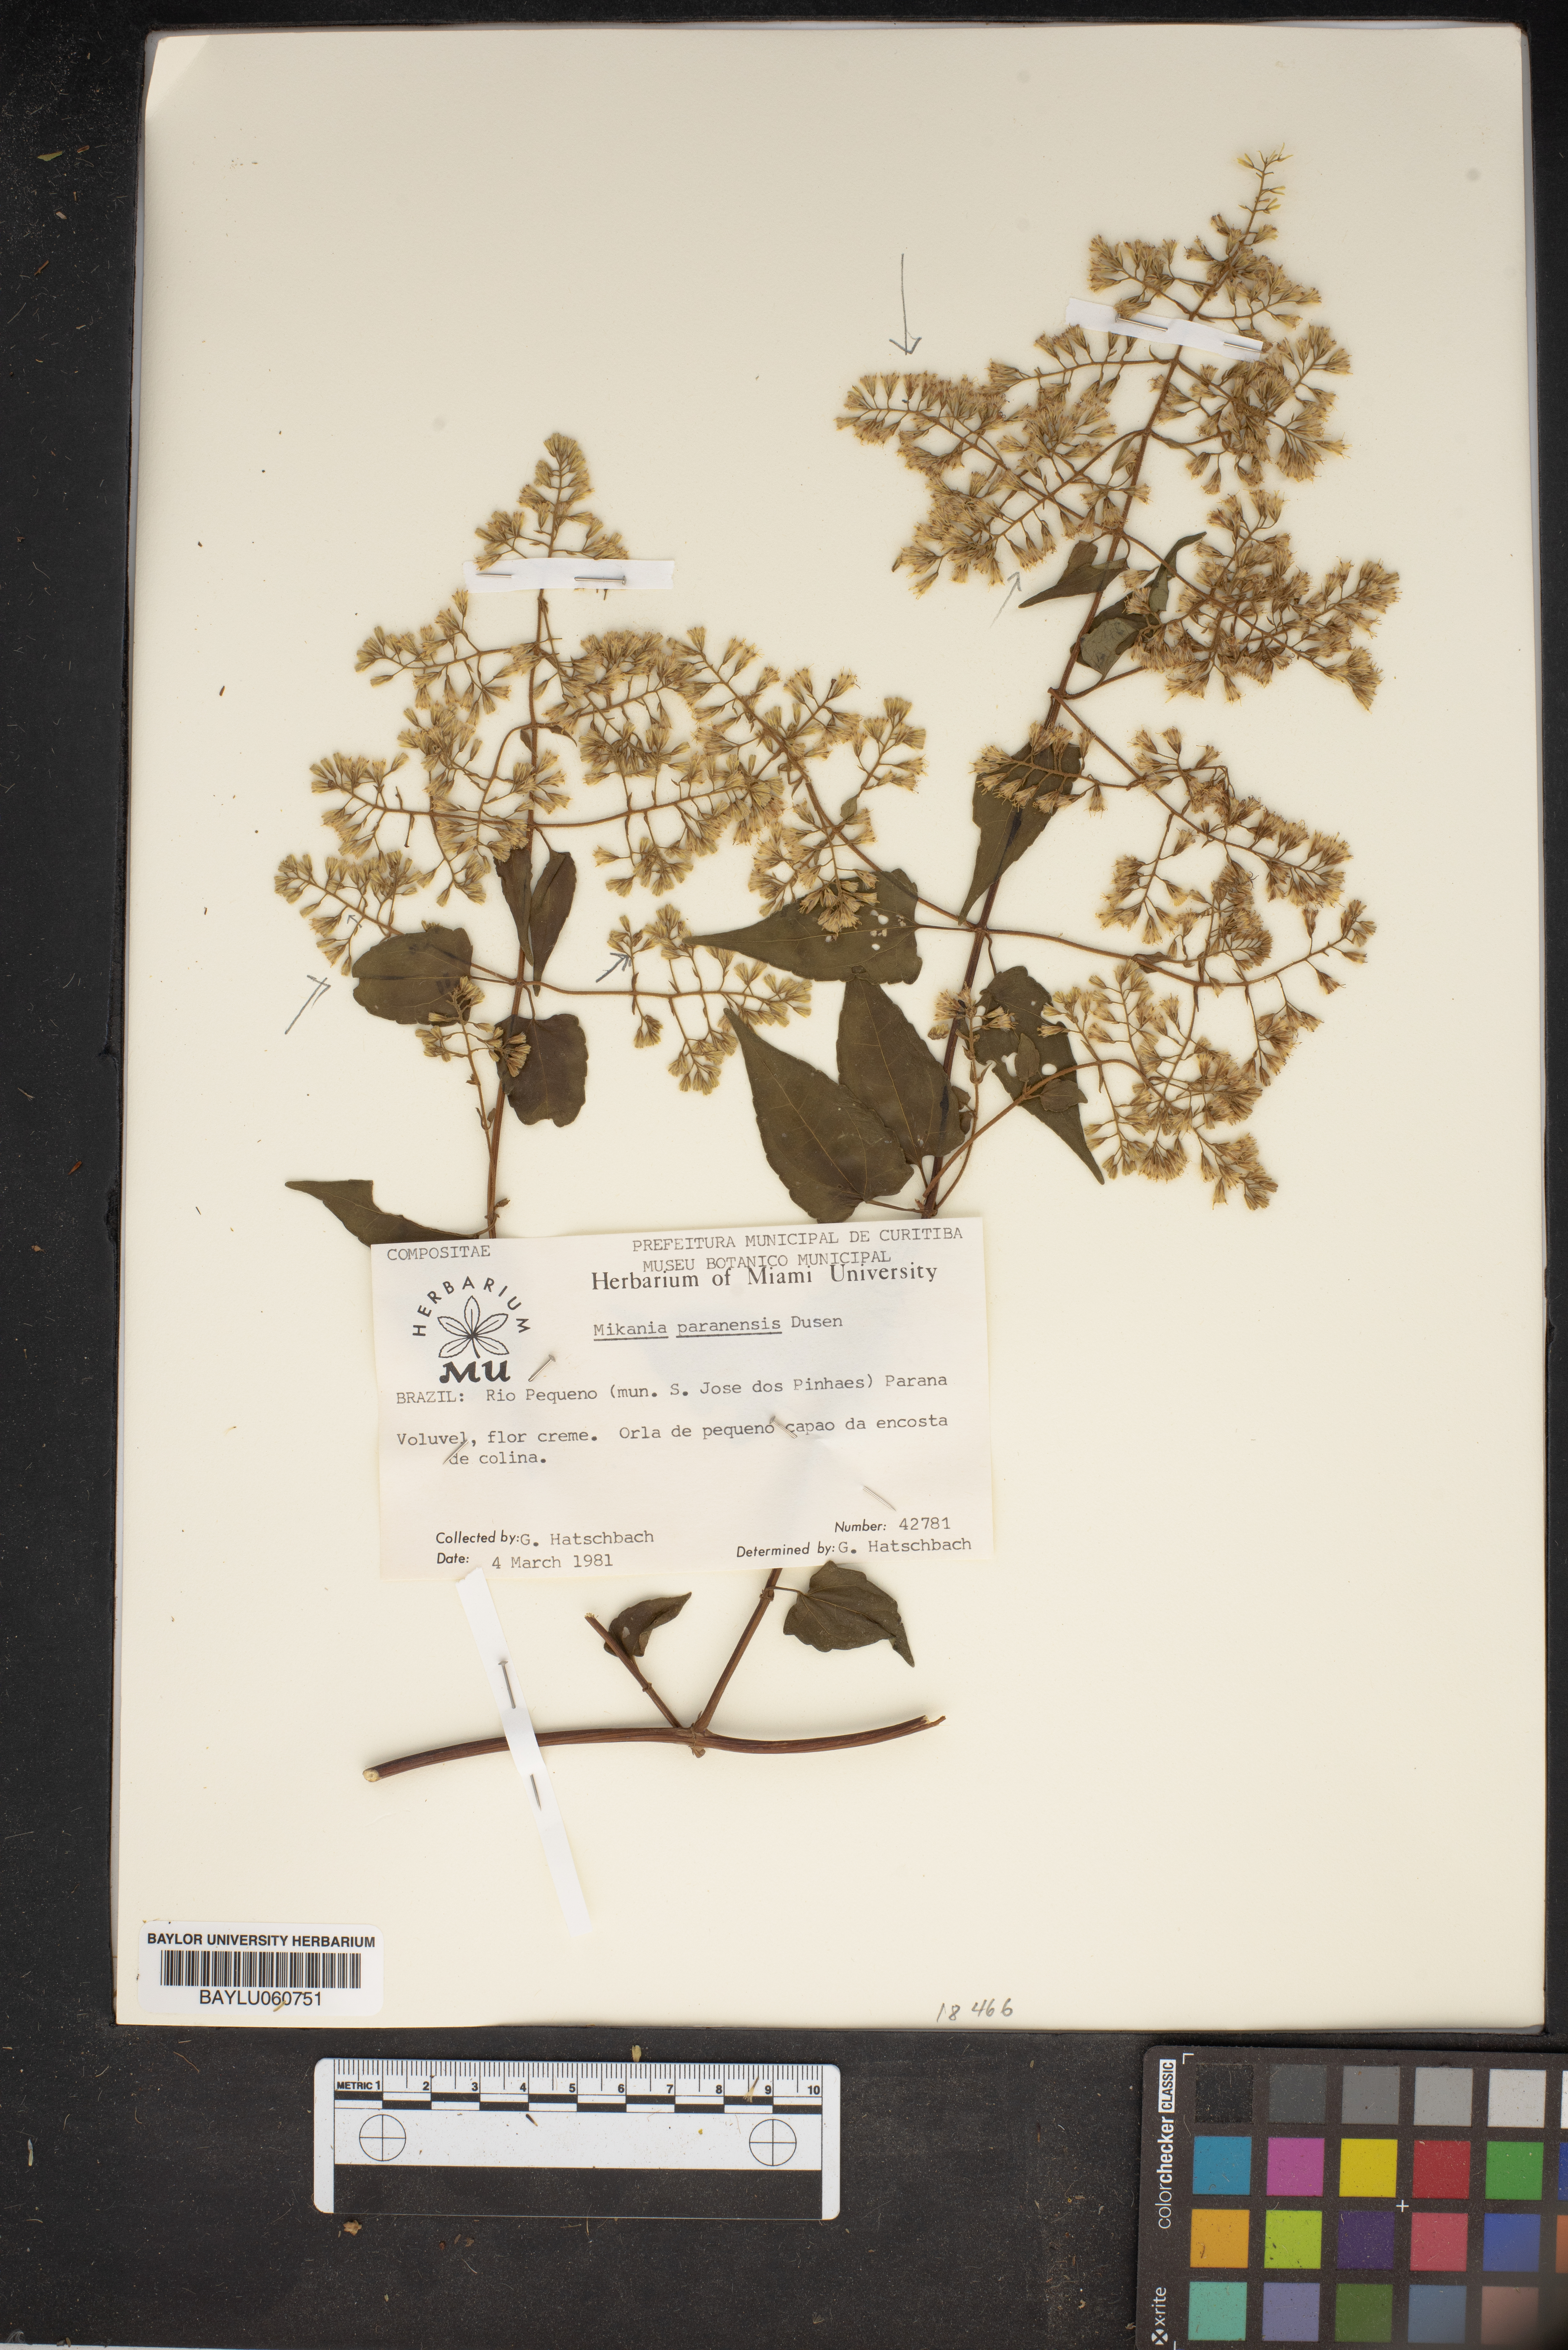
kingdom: Plantae
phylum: Tracheophyta
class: Magnoliopsida
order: Asterales
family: Asteraceae
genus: Mikania
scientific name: Mikania paranensis
